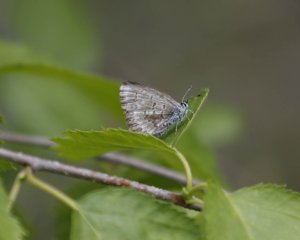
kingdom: Animalia
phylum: Arthropoda
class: Insecta
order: Lepidoptera
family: Lycaenidae
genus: Celastrina
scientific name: Celastrina lucia
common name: Northern Spring Azure
